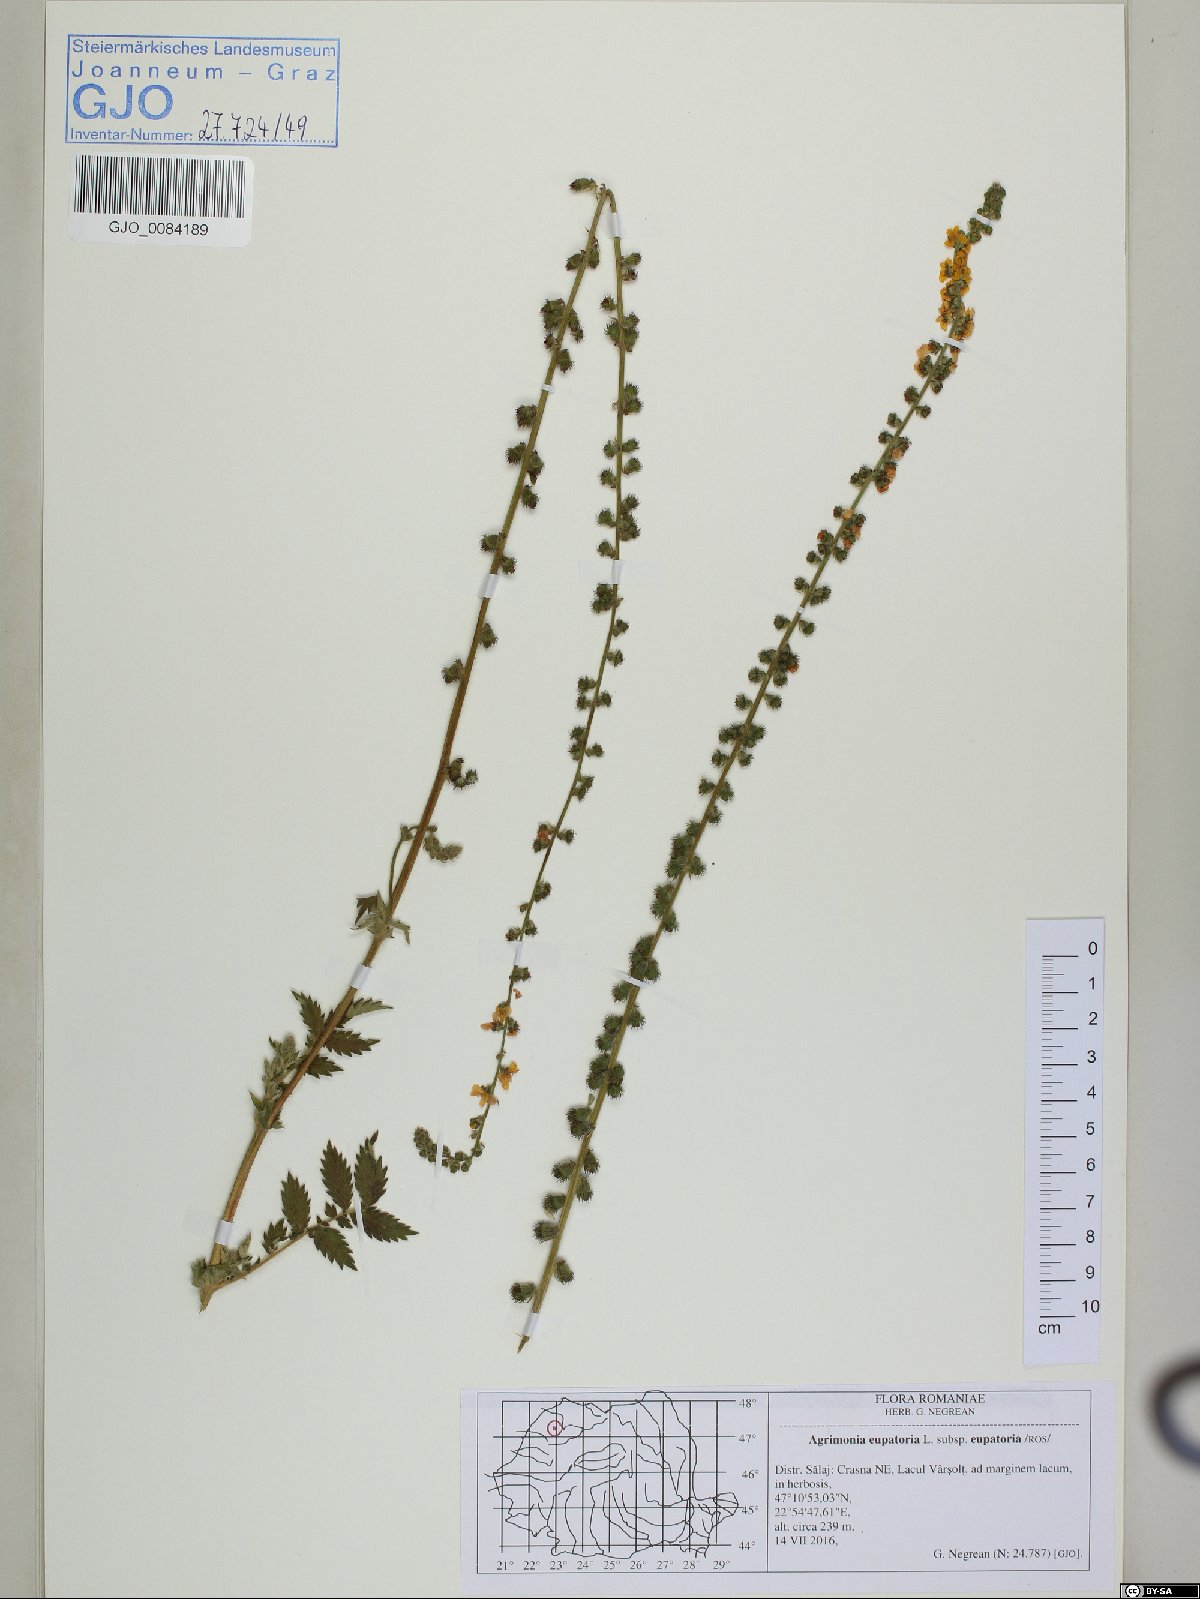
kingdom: Plantae
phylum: Tracheophyta
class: Magnoliopsida
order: Rosales
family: Rosaceae
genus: Agrimonia
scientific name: Agrimonia eupatoria
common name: Agrimony
